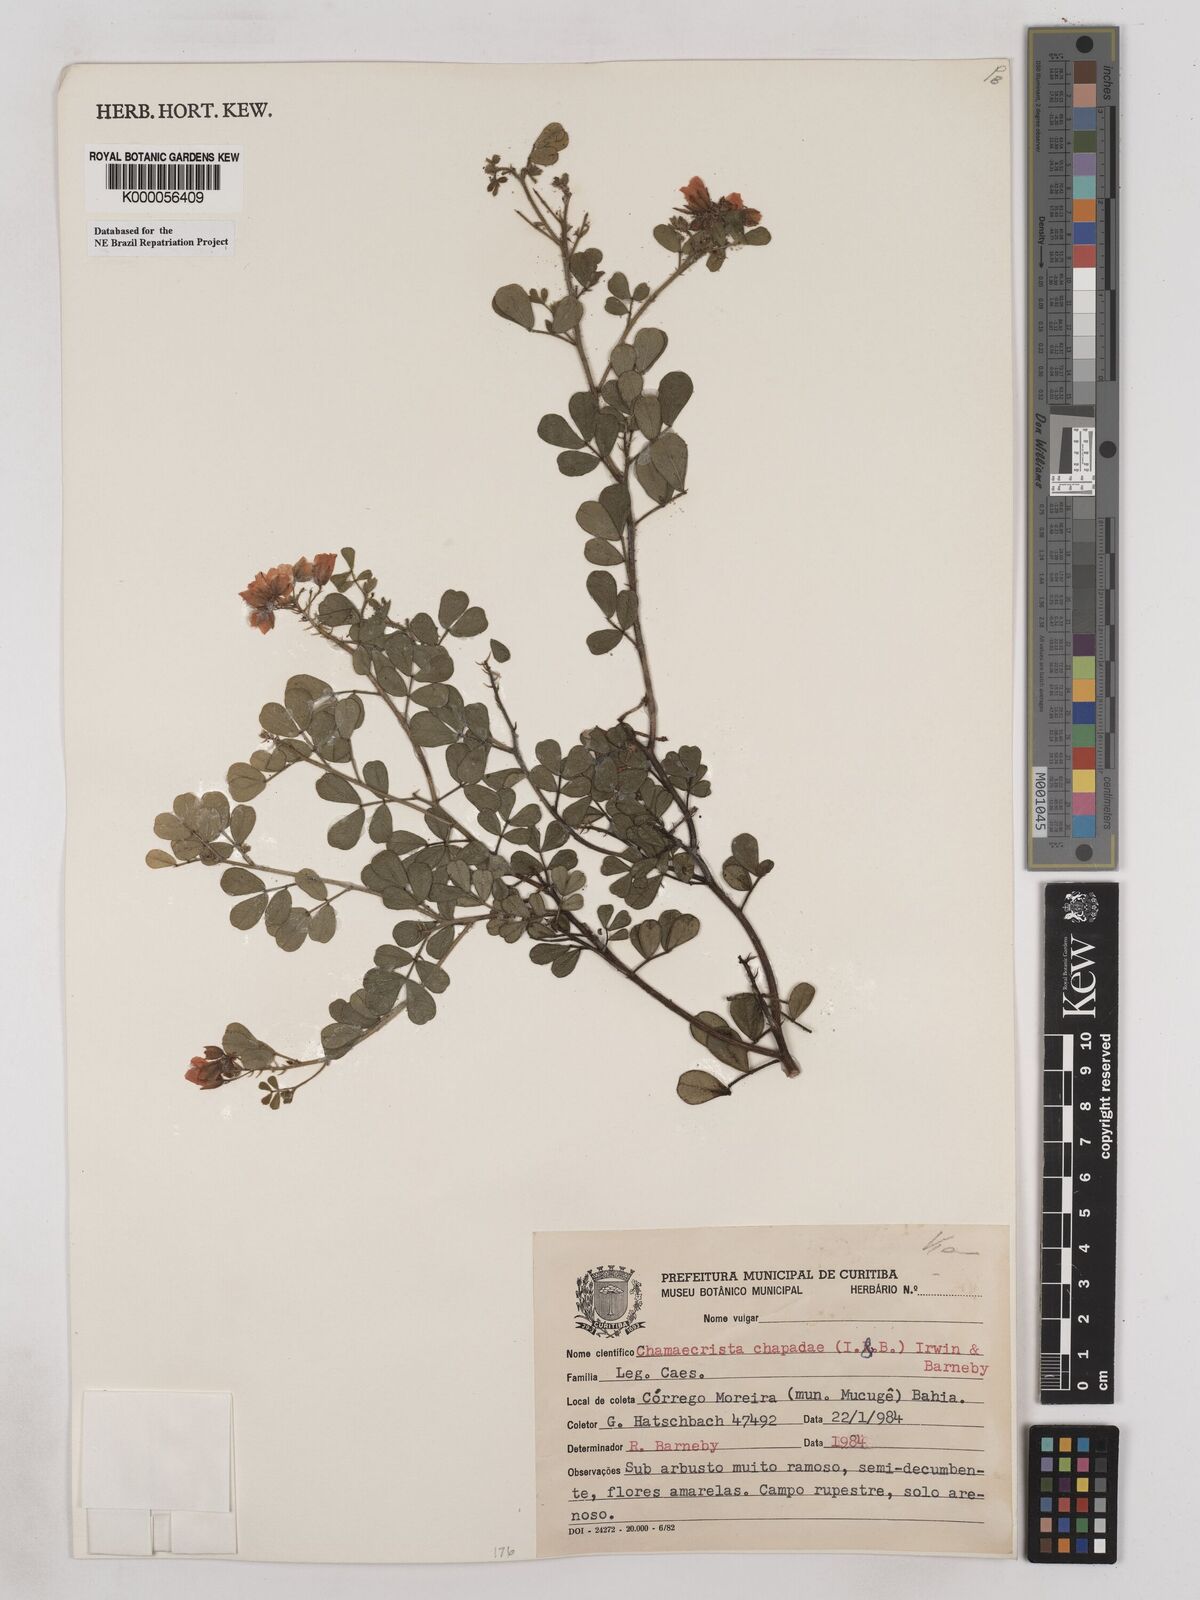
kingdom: Plantae
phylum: Tracheophyta
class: Magnoliopsida
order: Fabales
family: Fabaceae
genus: Chamaecrista
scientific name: Chamaecrista chapadae
